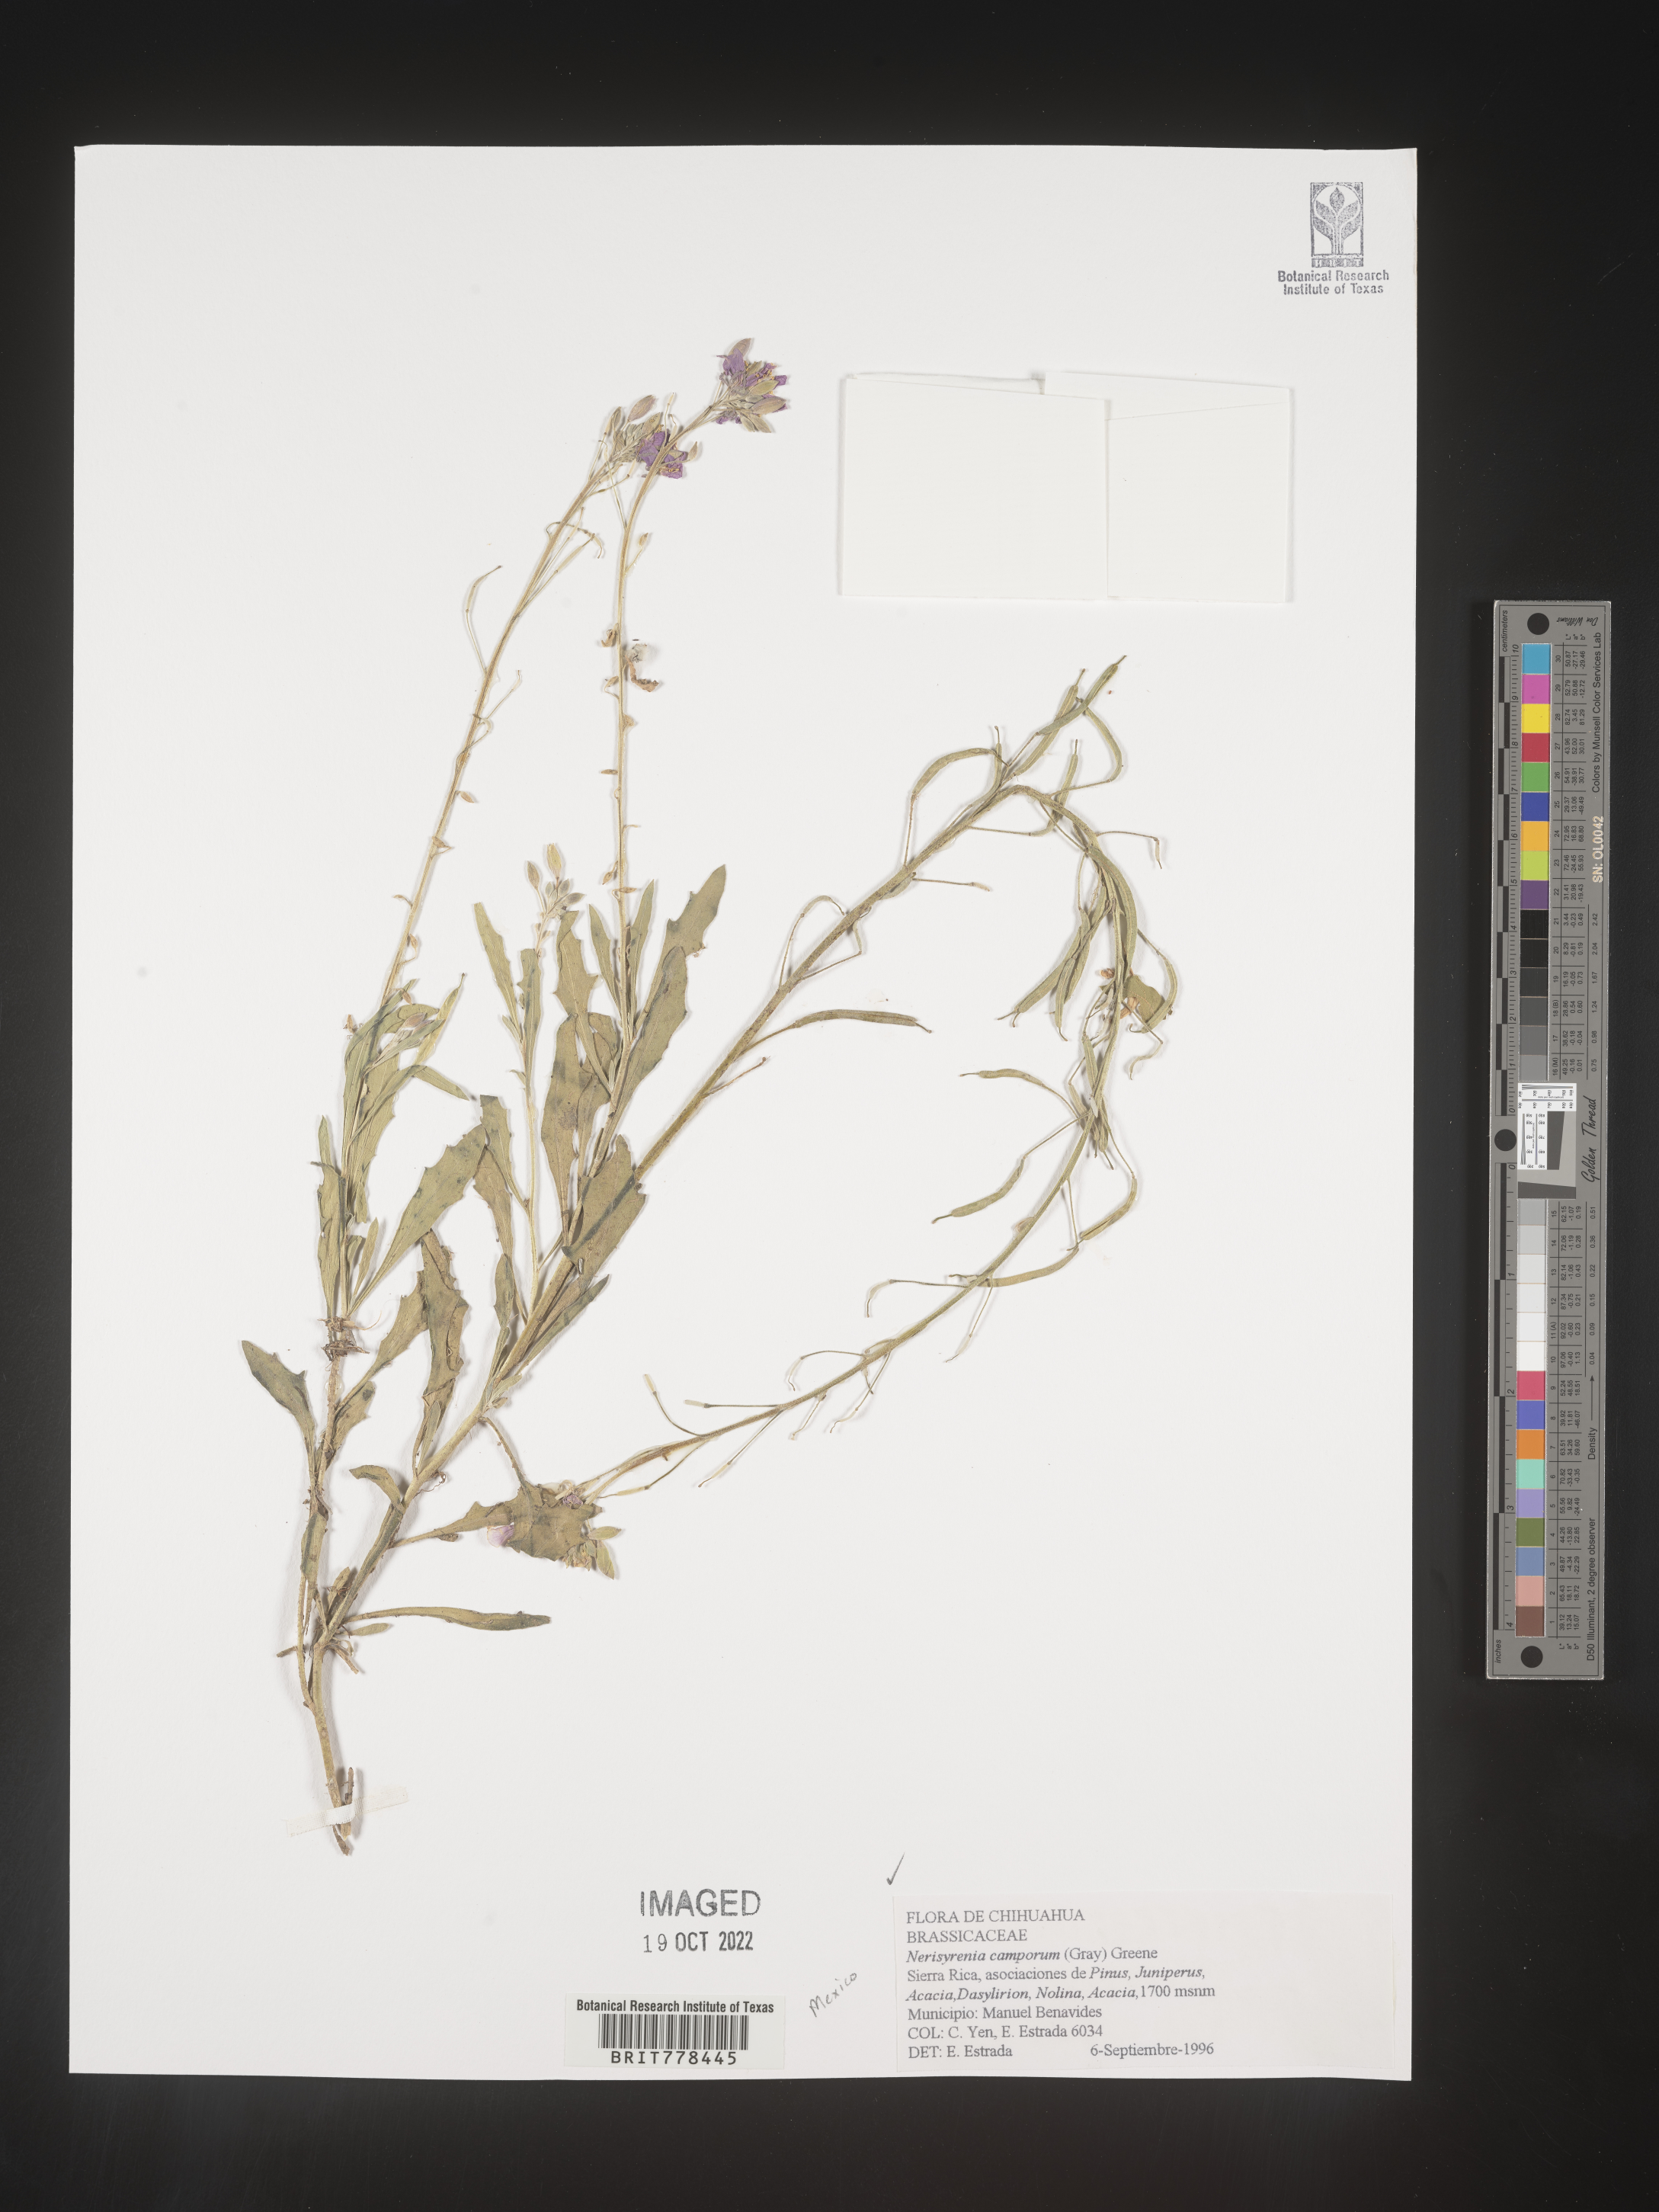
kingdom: Plantae
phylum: Tracheophyta
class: Magnoliopsida
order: Brassicales
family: Brassicaceae
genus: Nerisyrenia
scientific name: Nerisyrenia
